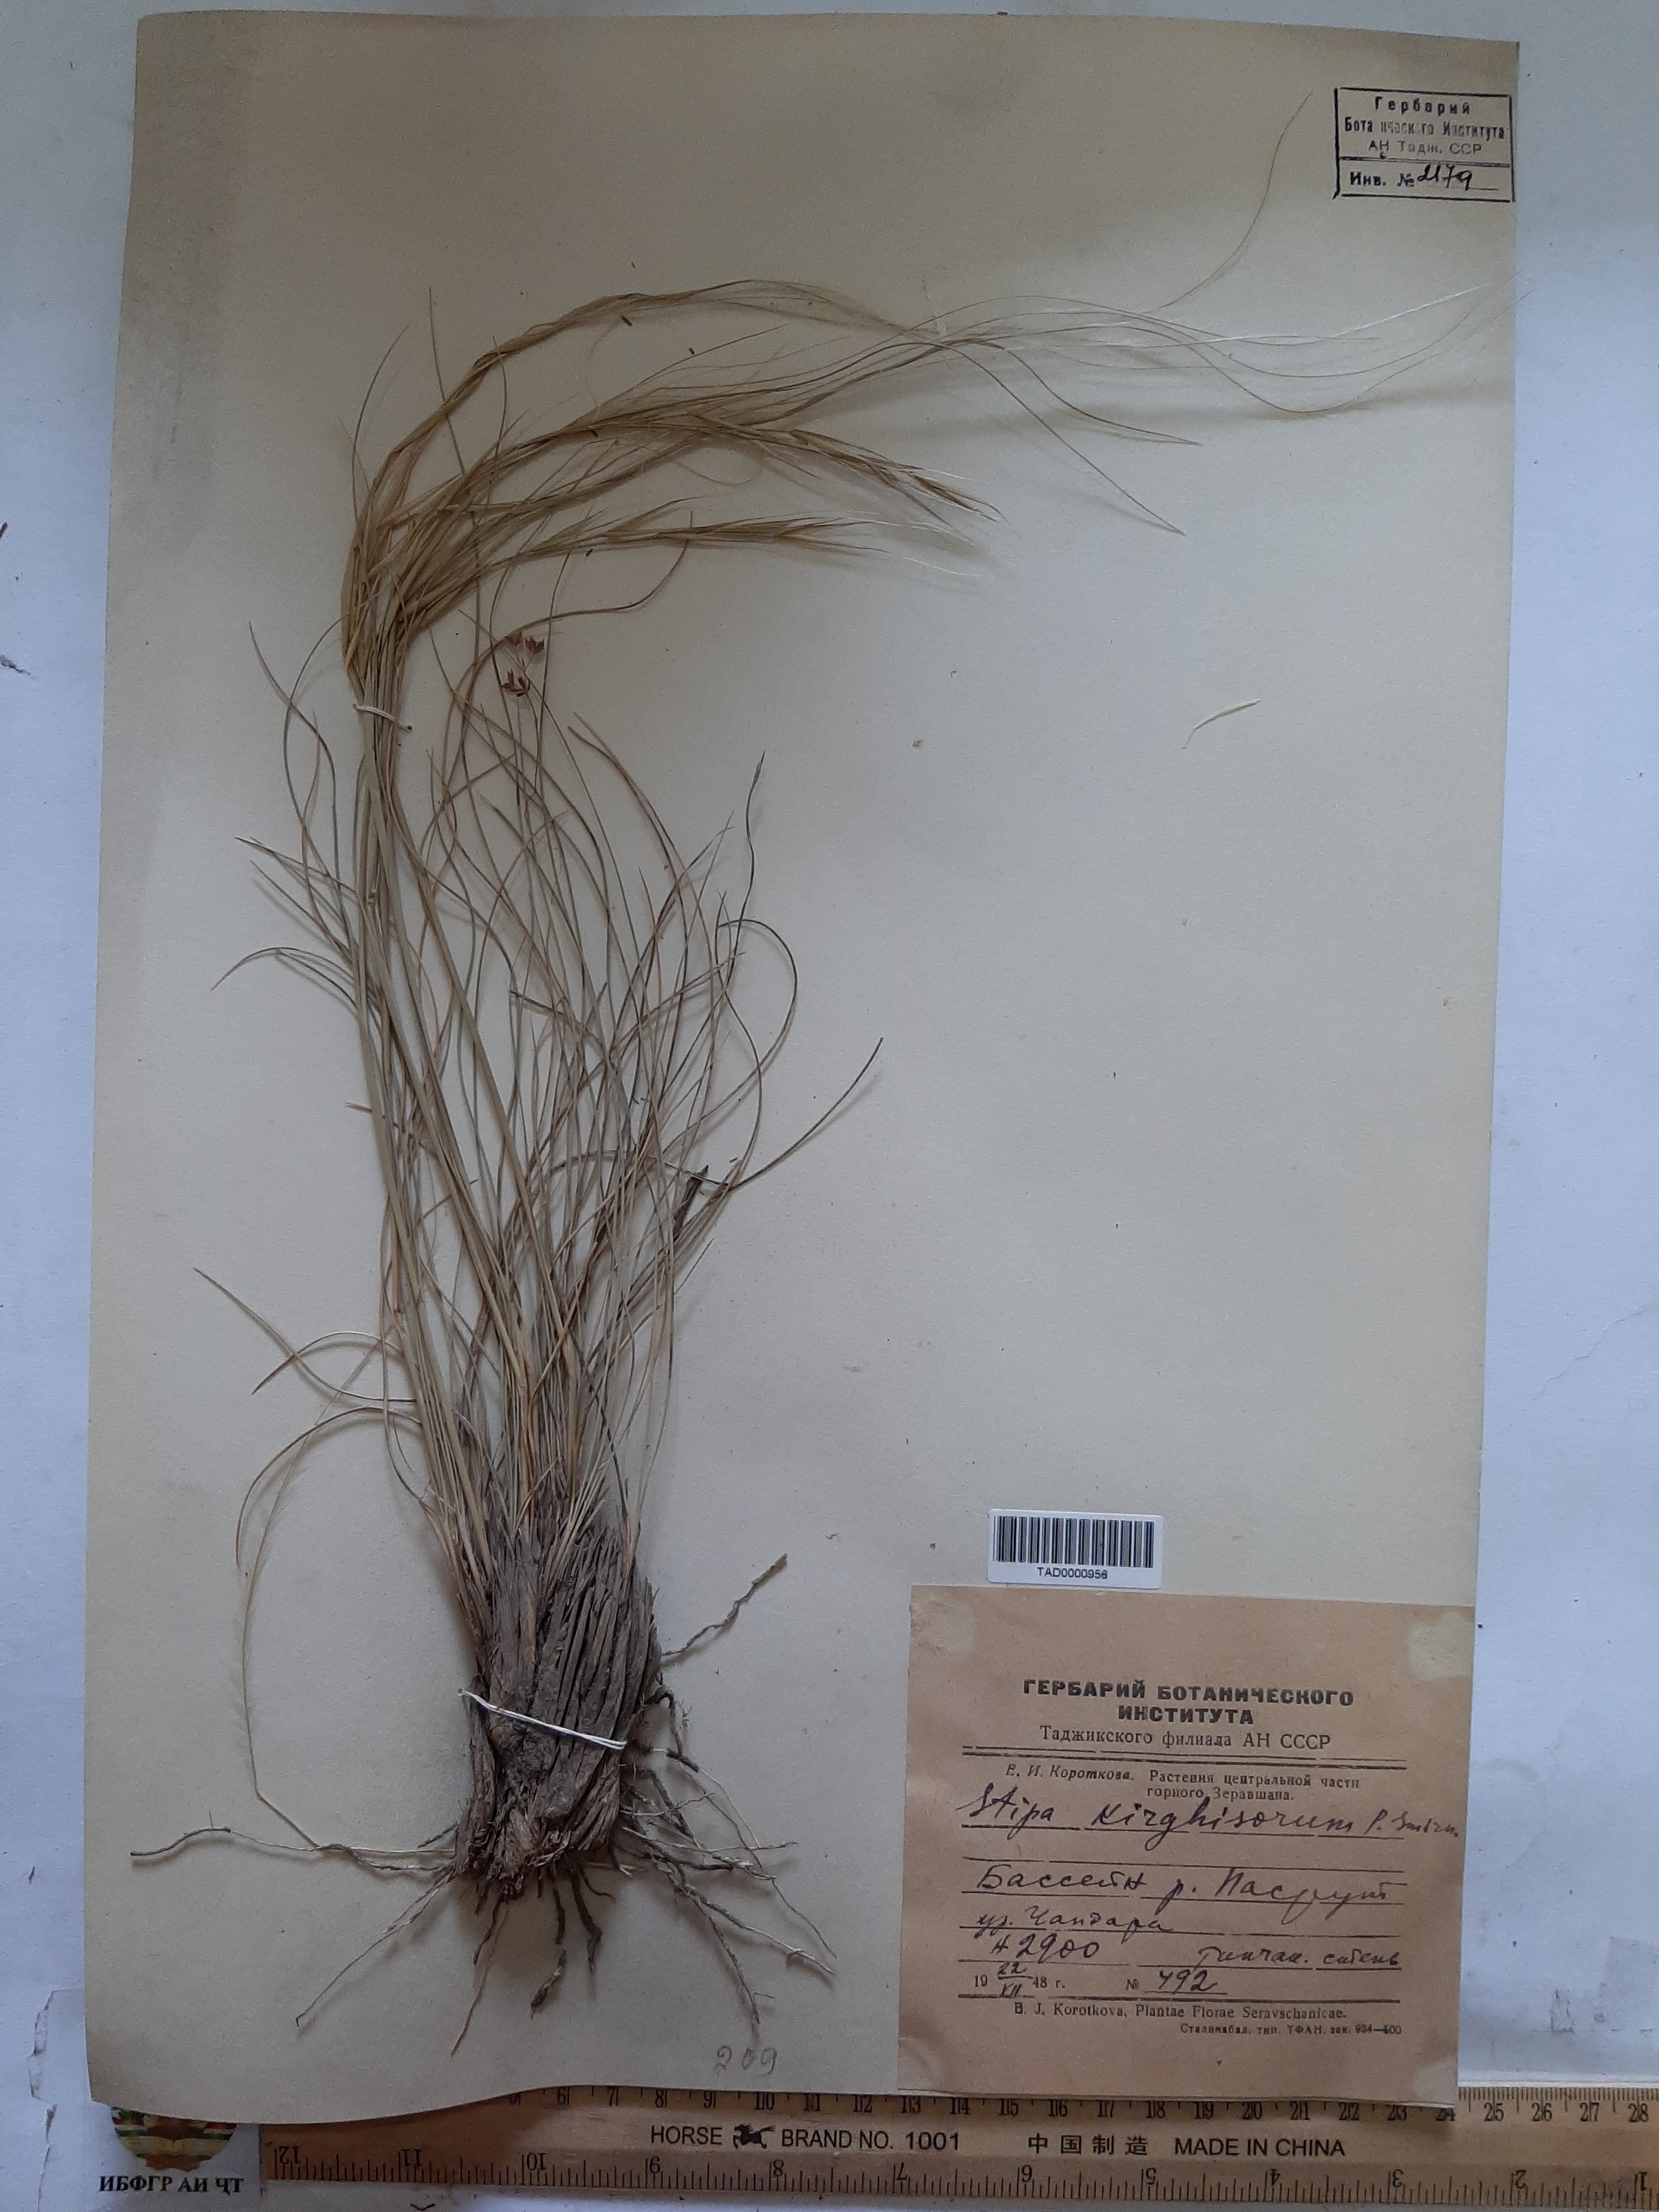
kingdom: Plantae
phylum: Tracheophyta
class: Liliopsida
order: Poales
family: Poaceae
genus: Stipa
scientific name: Stipa kirghisorum
